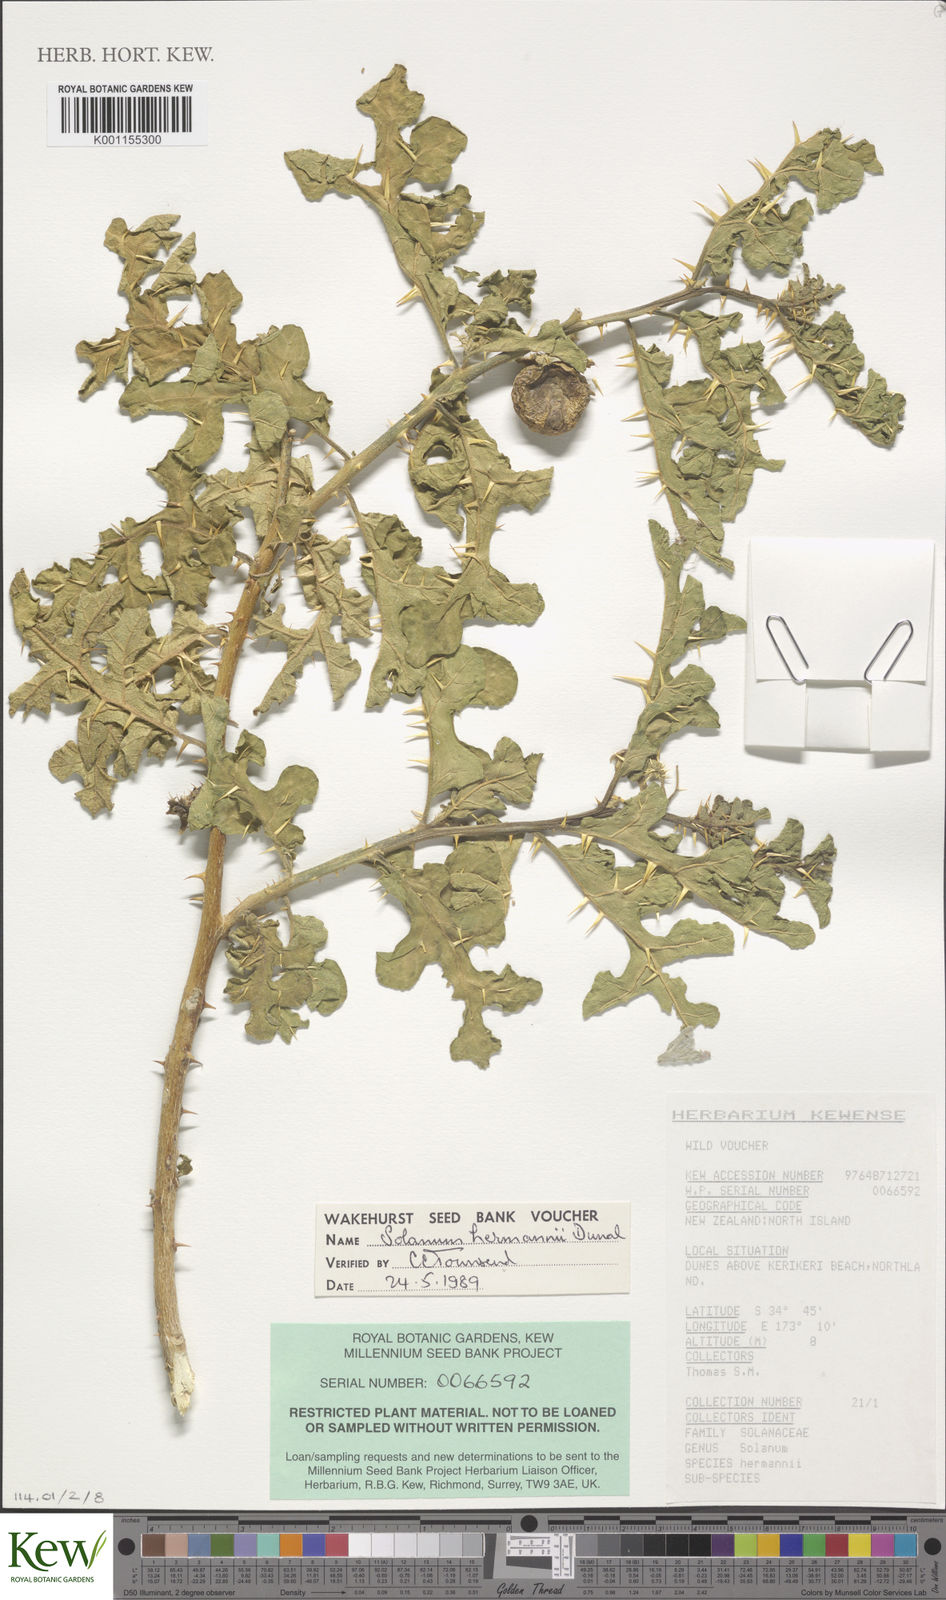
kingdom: Plantae
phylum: Tracheophyta
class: Magnoliopsida
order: Solanales
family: Solanaceae
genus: Solanum
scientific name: Solanum linnaeanum
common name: Nightshade
